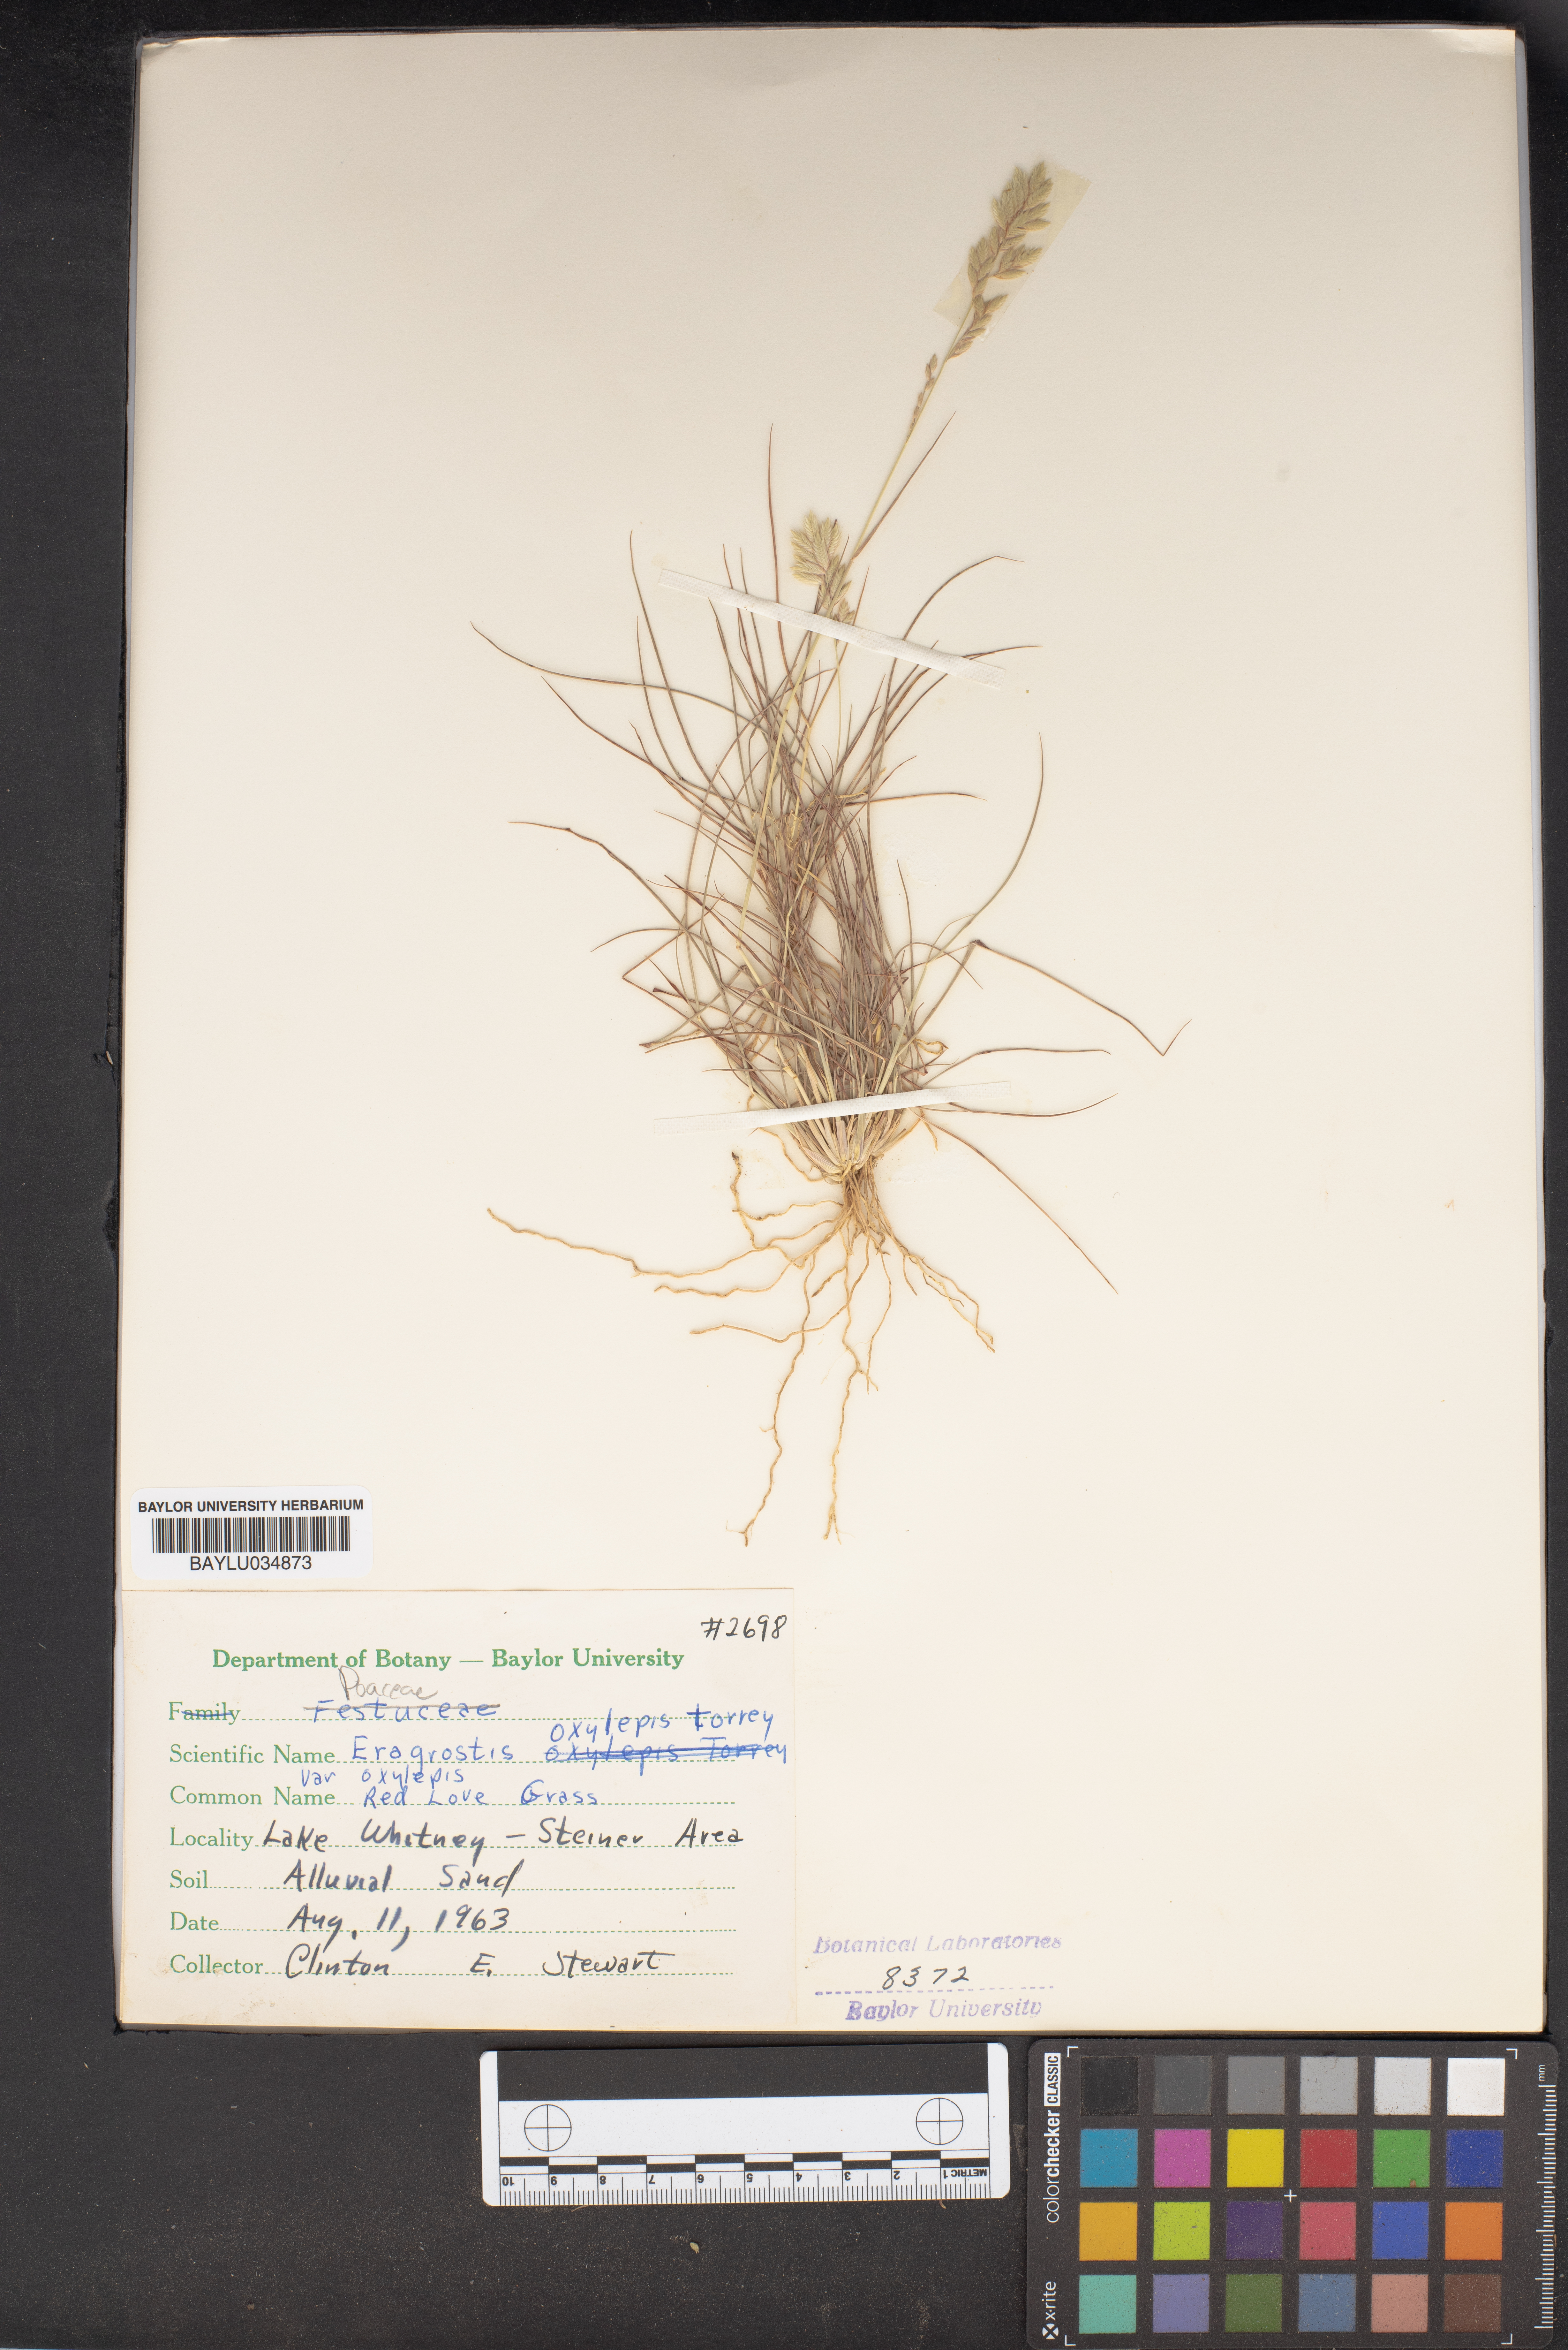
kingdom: Plantae
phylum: Tracheophyta
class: Liliopsida
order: Poales
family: Poaceae
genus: Eragrostis
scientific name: Eragrostis secundiflora
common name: Red love grass
